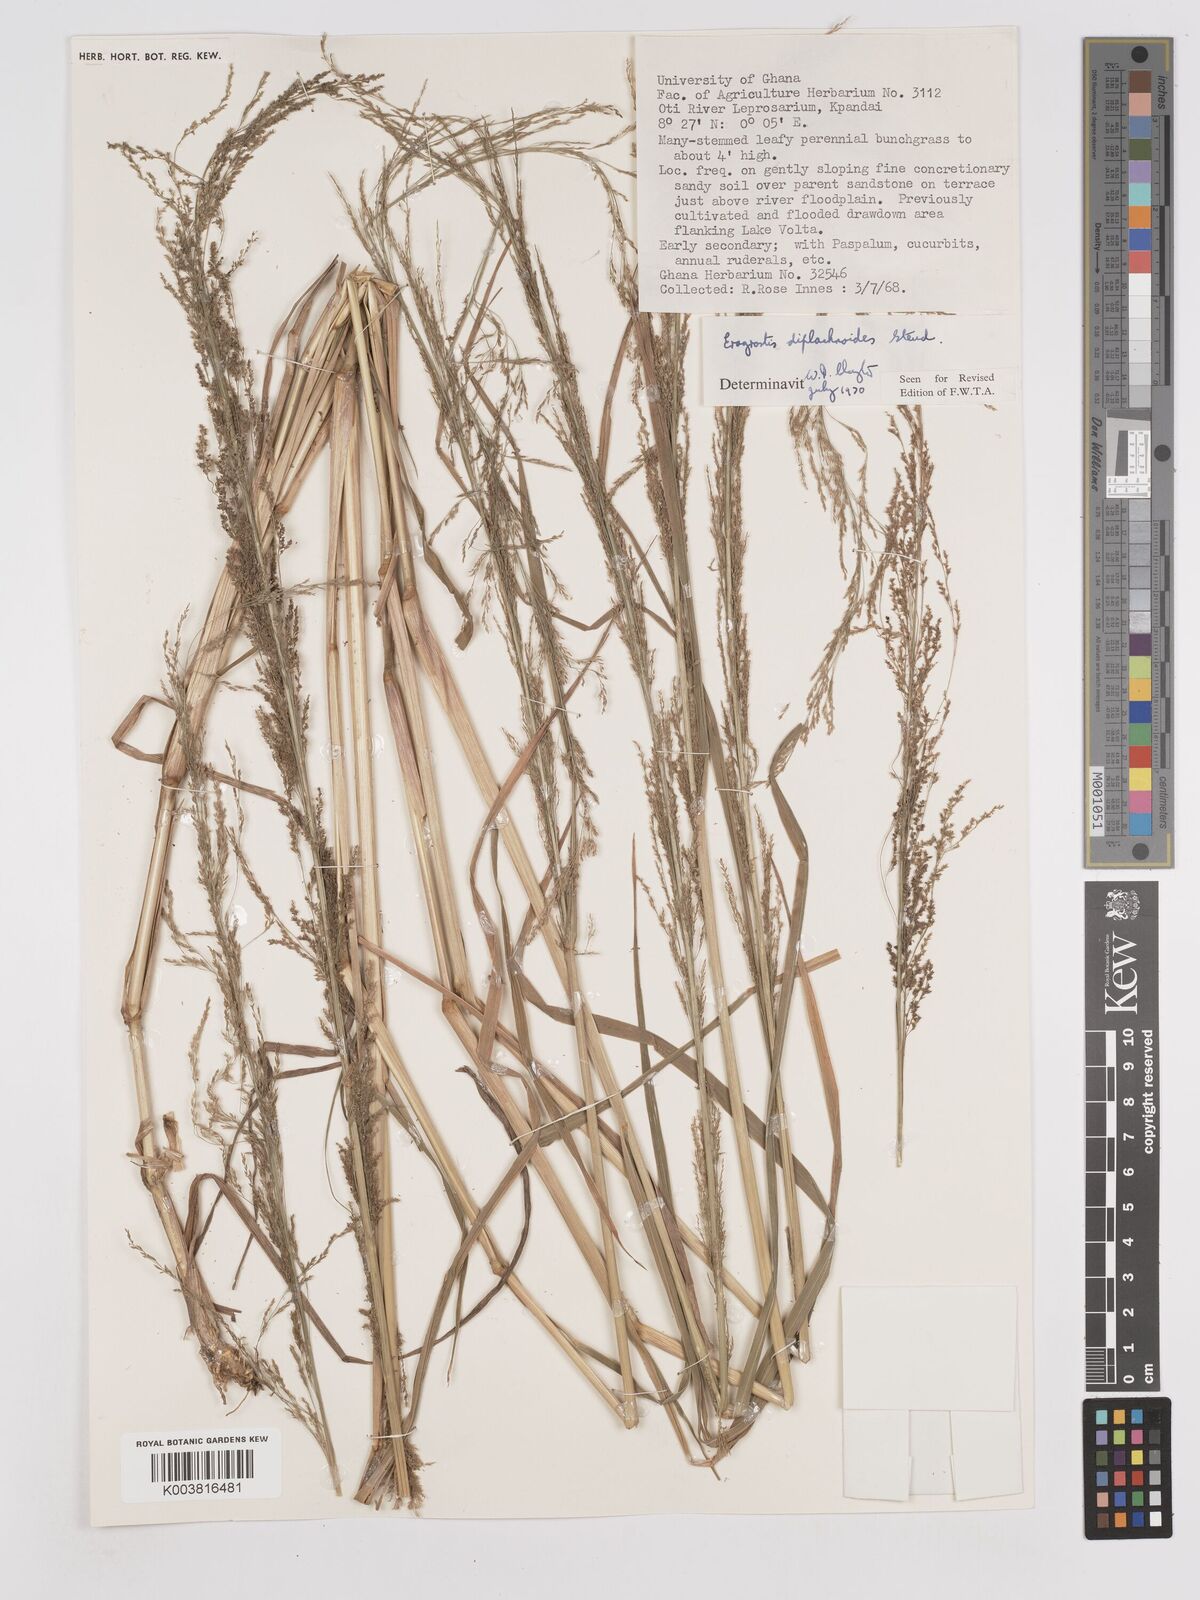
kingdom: Plantae
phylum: Tracheophyta
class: Liliopsida
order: Poales
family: Poaceae
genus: Eragrostis
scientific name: Eragrostis japonica
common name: Pond lovegrass
